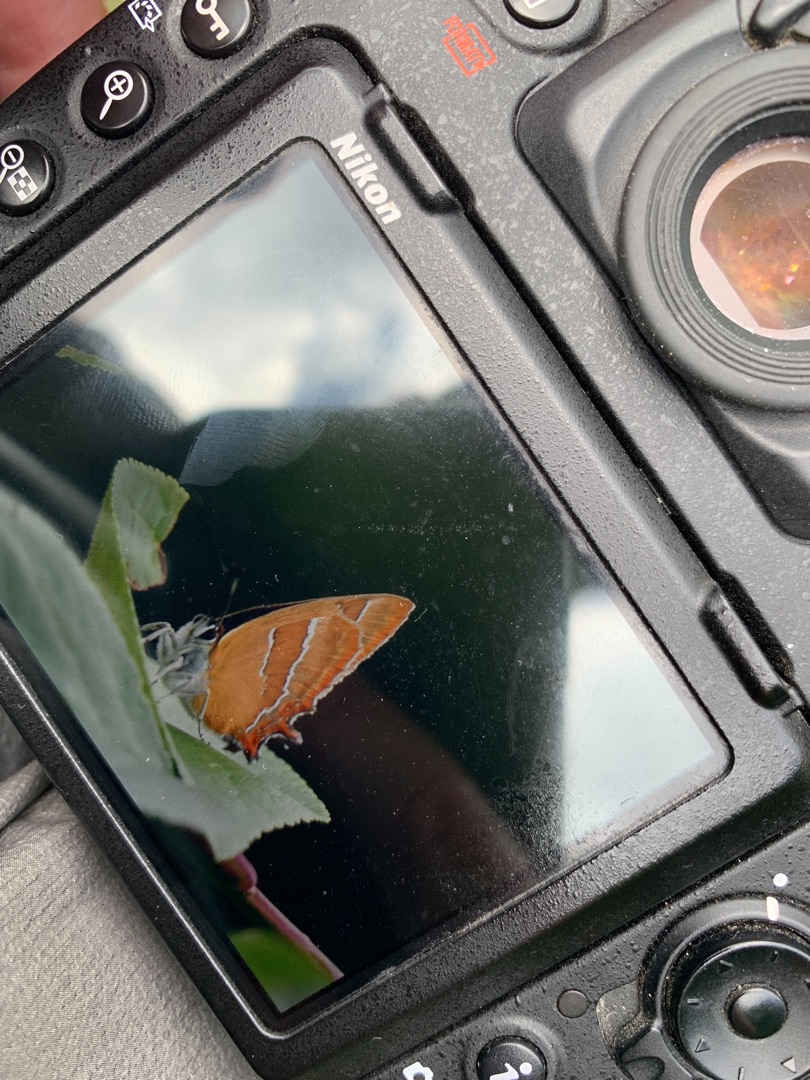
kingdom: Animalia
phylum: Arthropoda
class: Insecta
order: Lepidoptera
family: Lycaenidae
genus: Thecla
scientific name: Thecla betulae
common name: Guldhale
